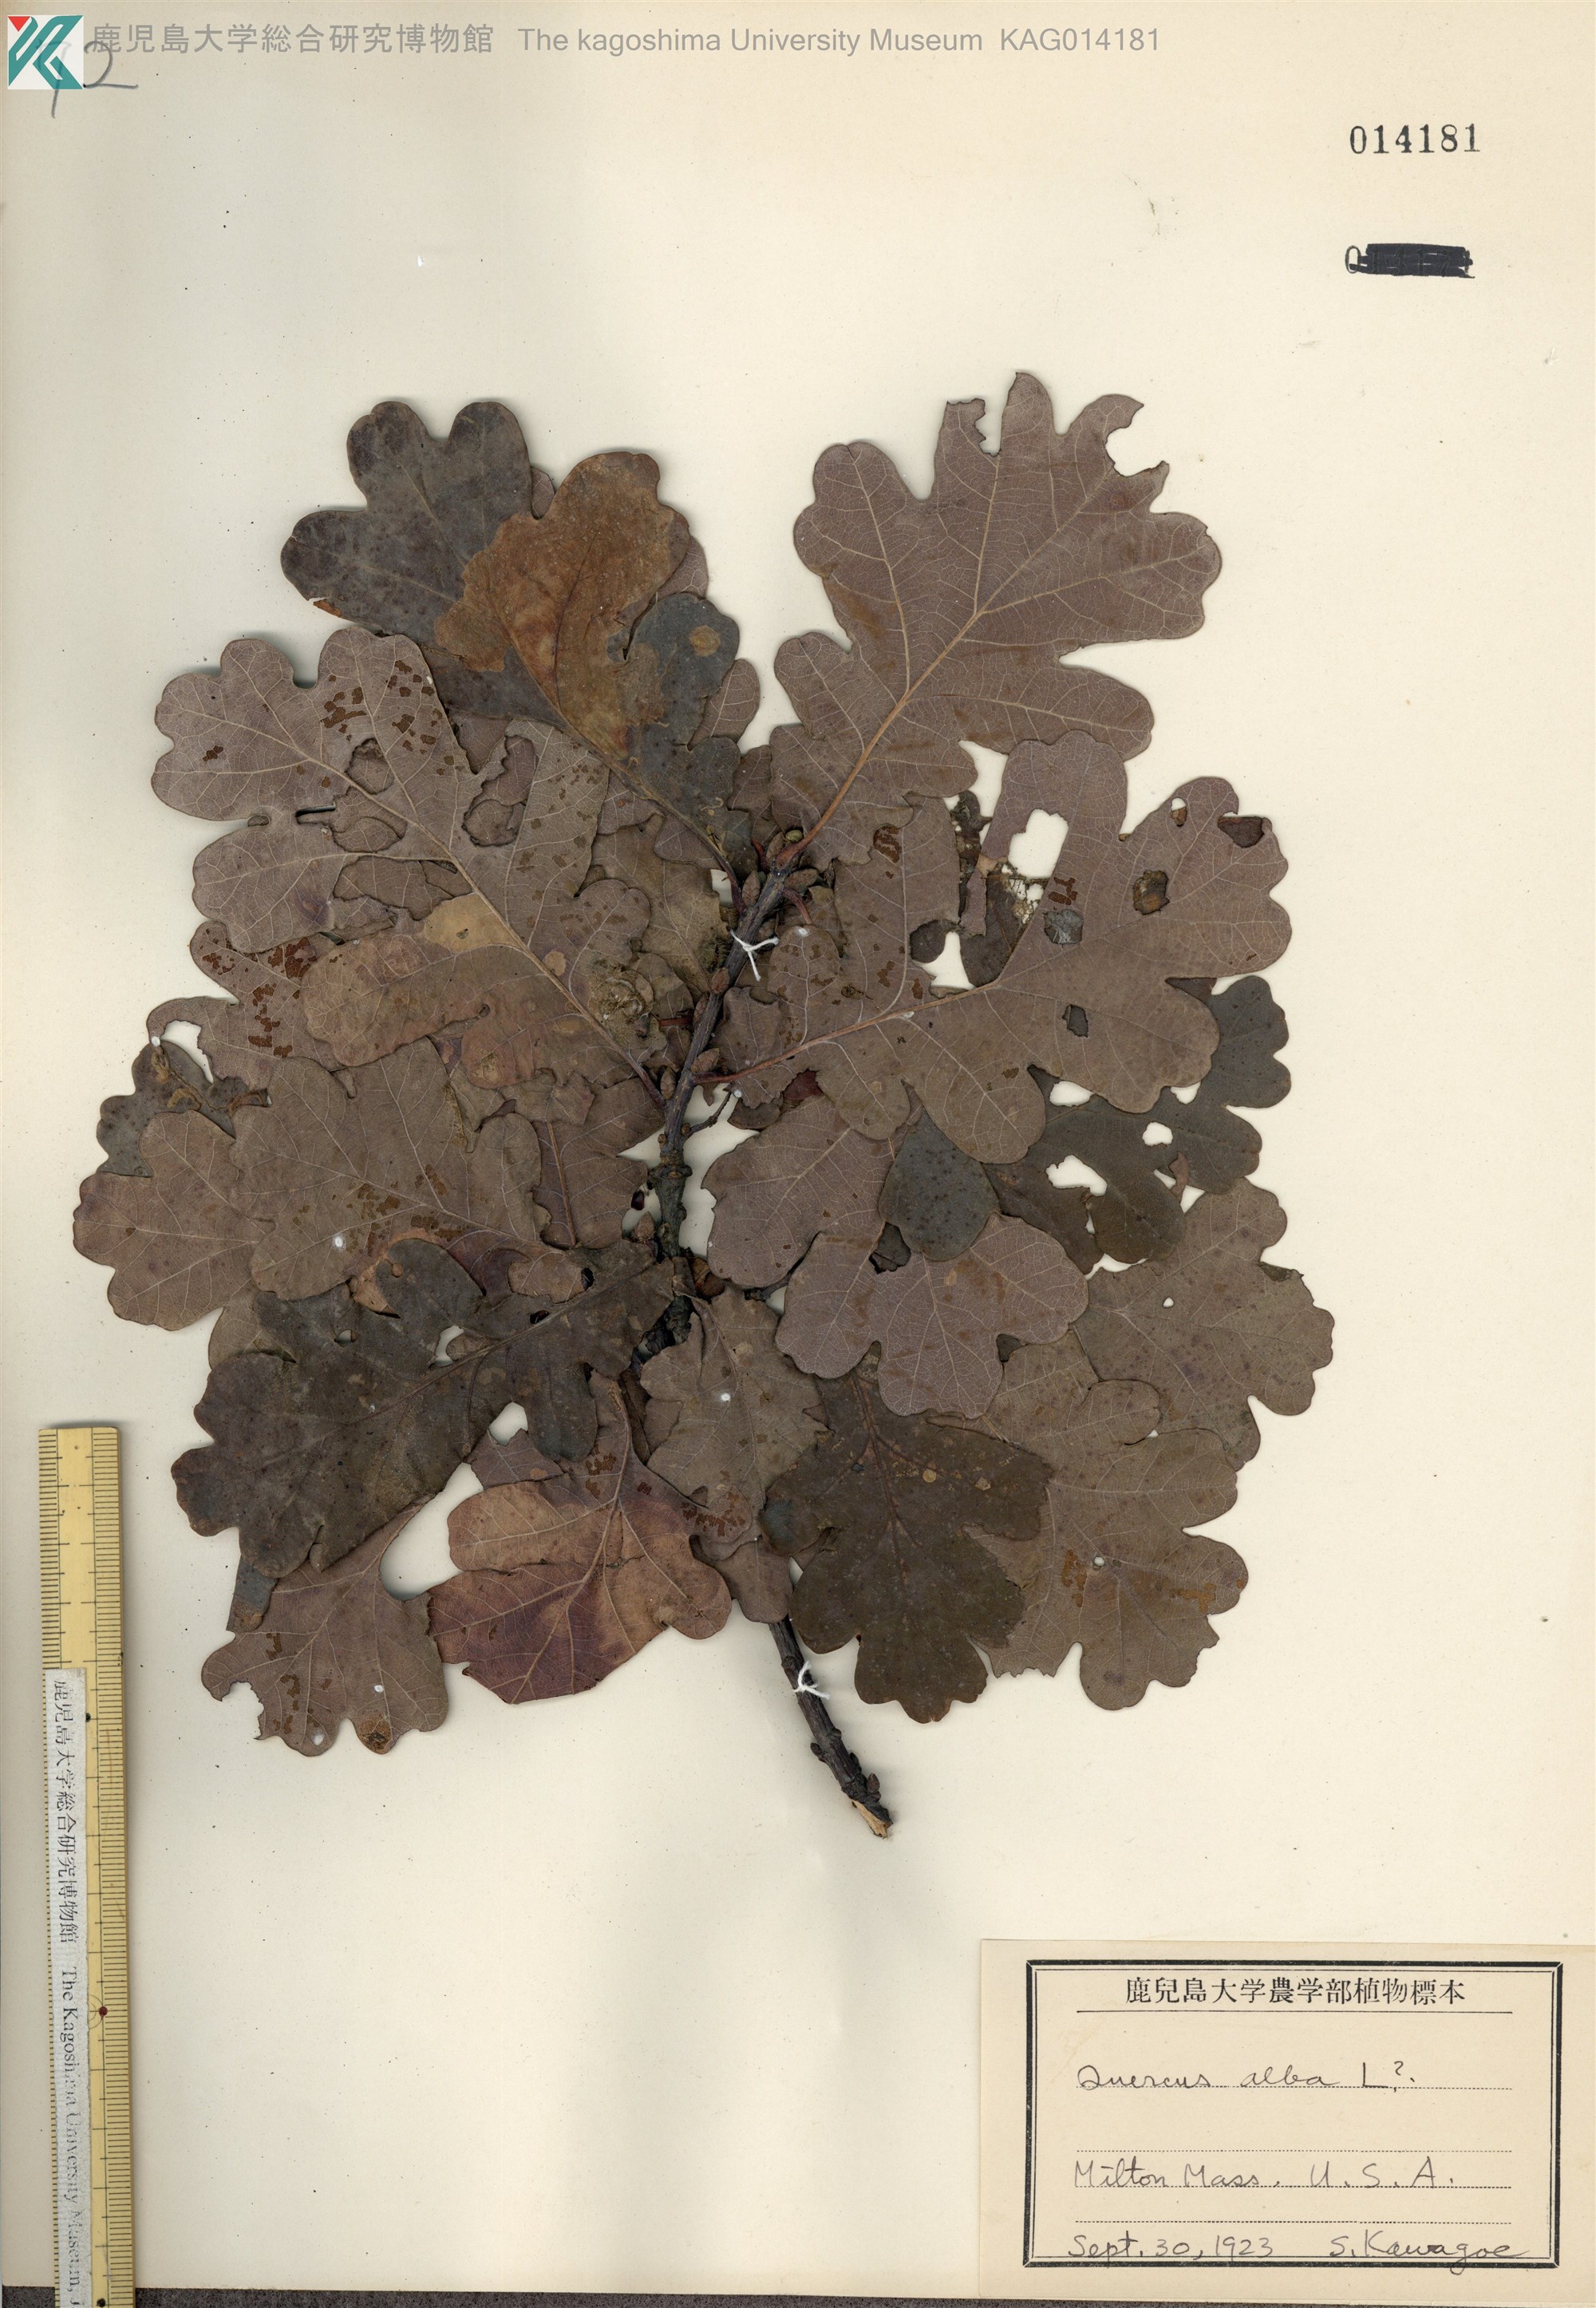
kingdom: Plantae
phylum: Tracheophyta
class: Magnoliopsida
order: Fagales
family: Fagaceae
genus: Quercus
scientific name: Quercus robur
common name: Pedunculate oak
